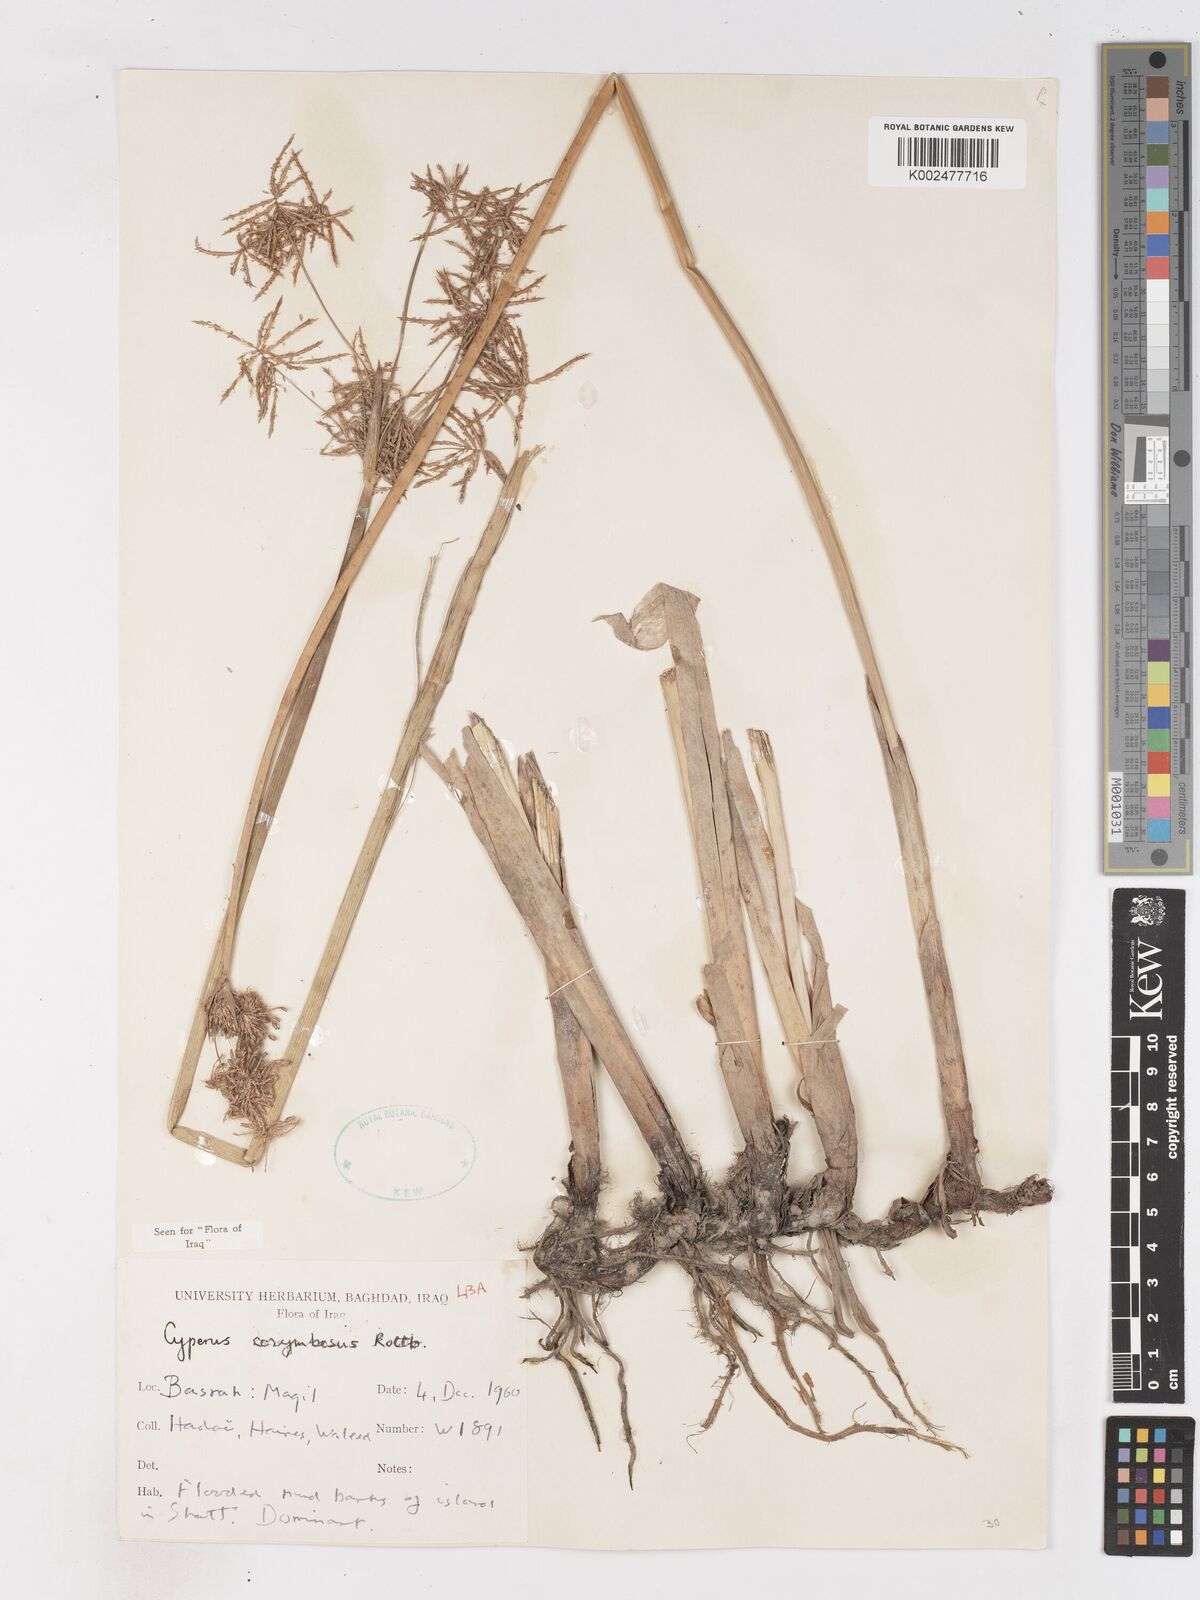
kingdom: Plantae
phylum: Tracheophyta
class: Liliopsida
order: Poales
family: Cyperaceae
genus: Cyperus
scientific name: Cyperus corymbosus
